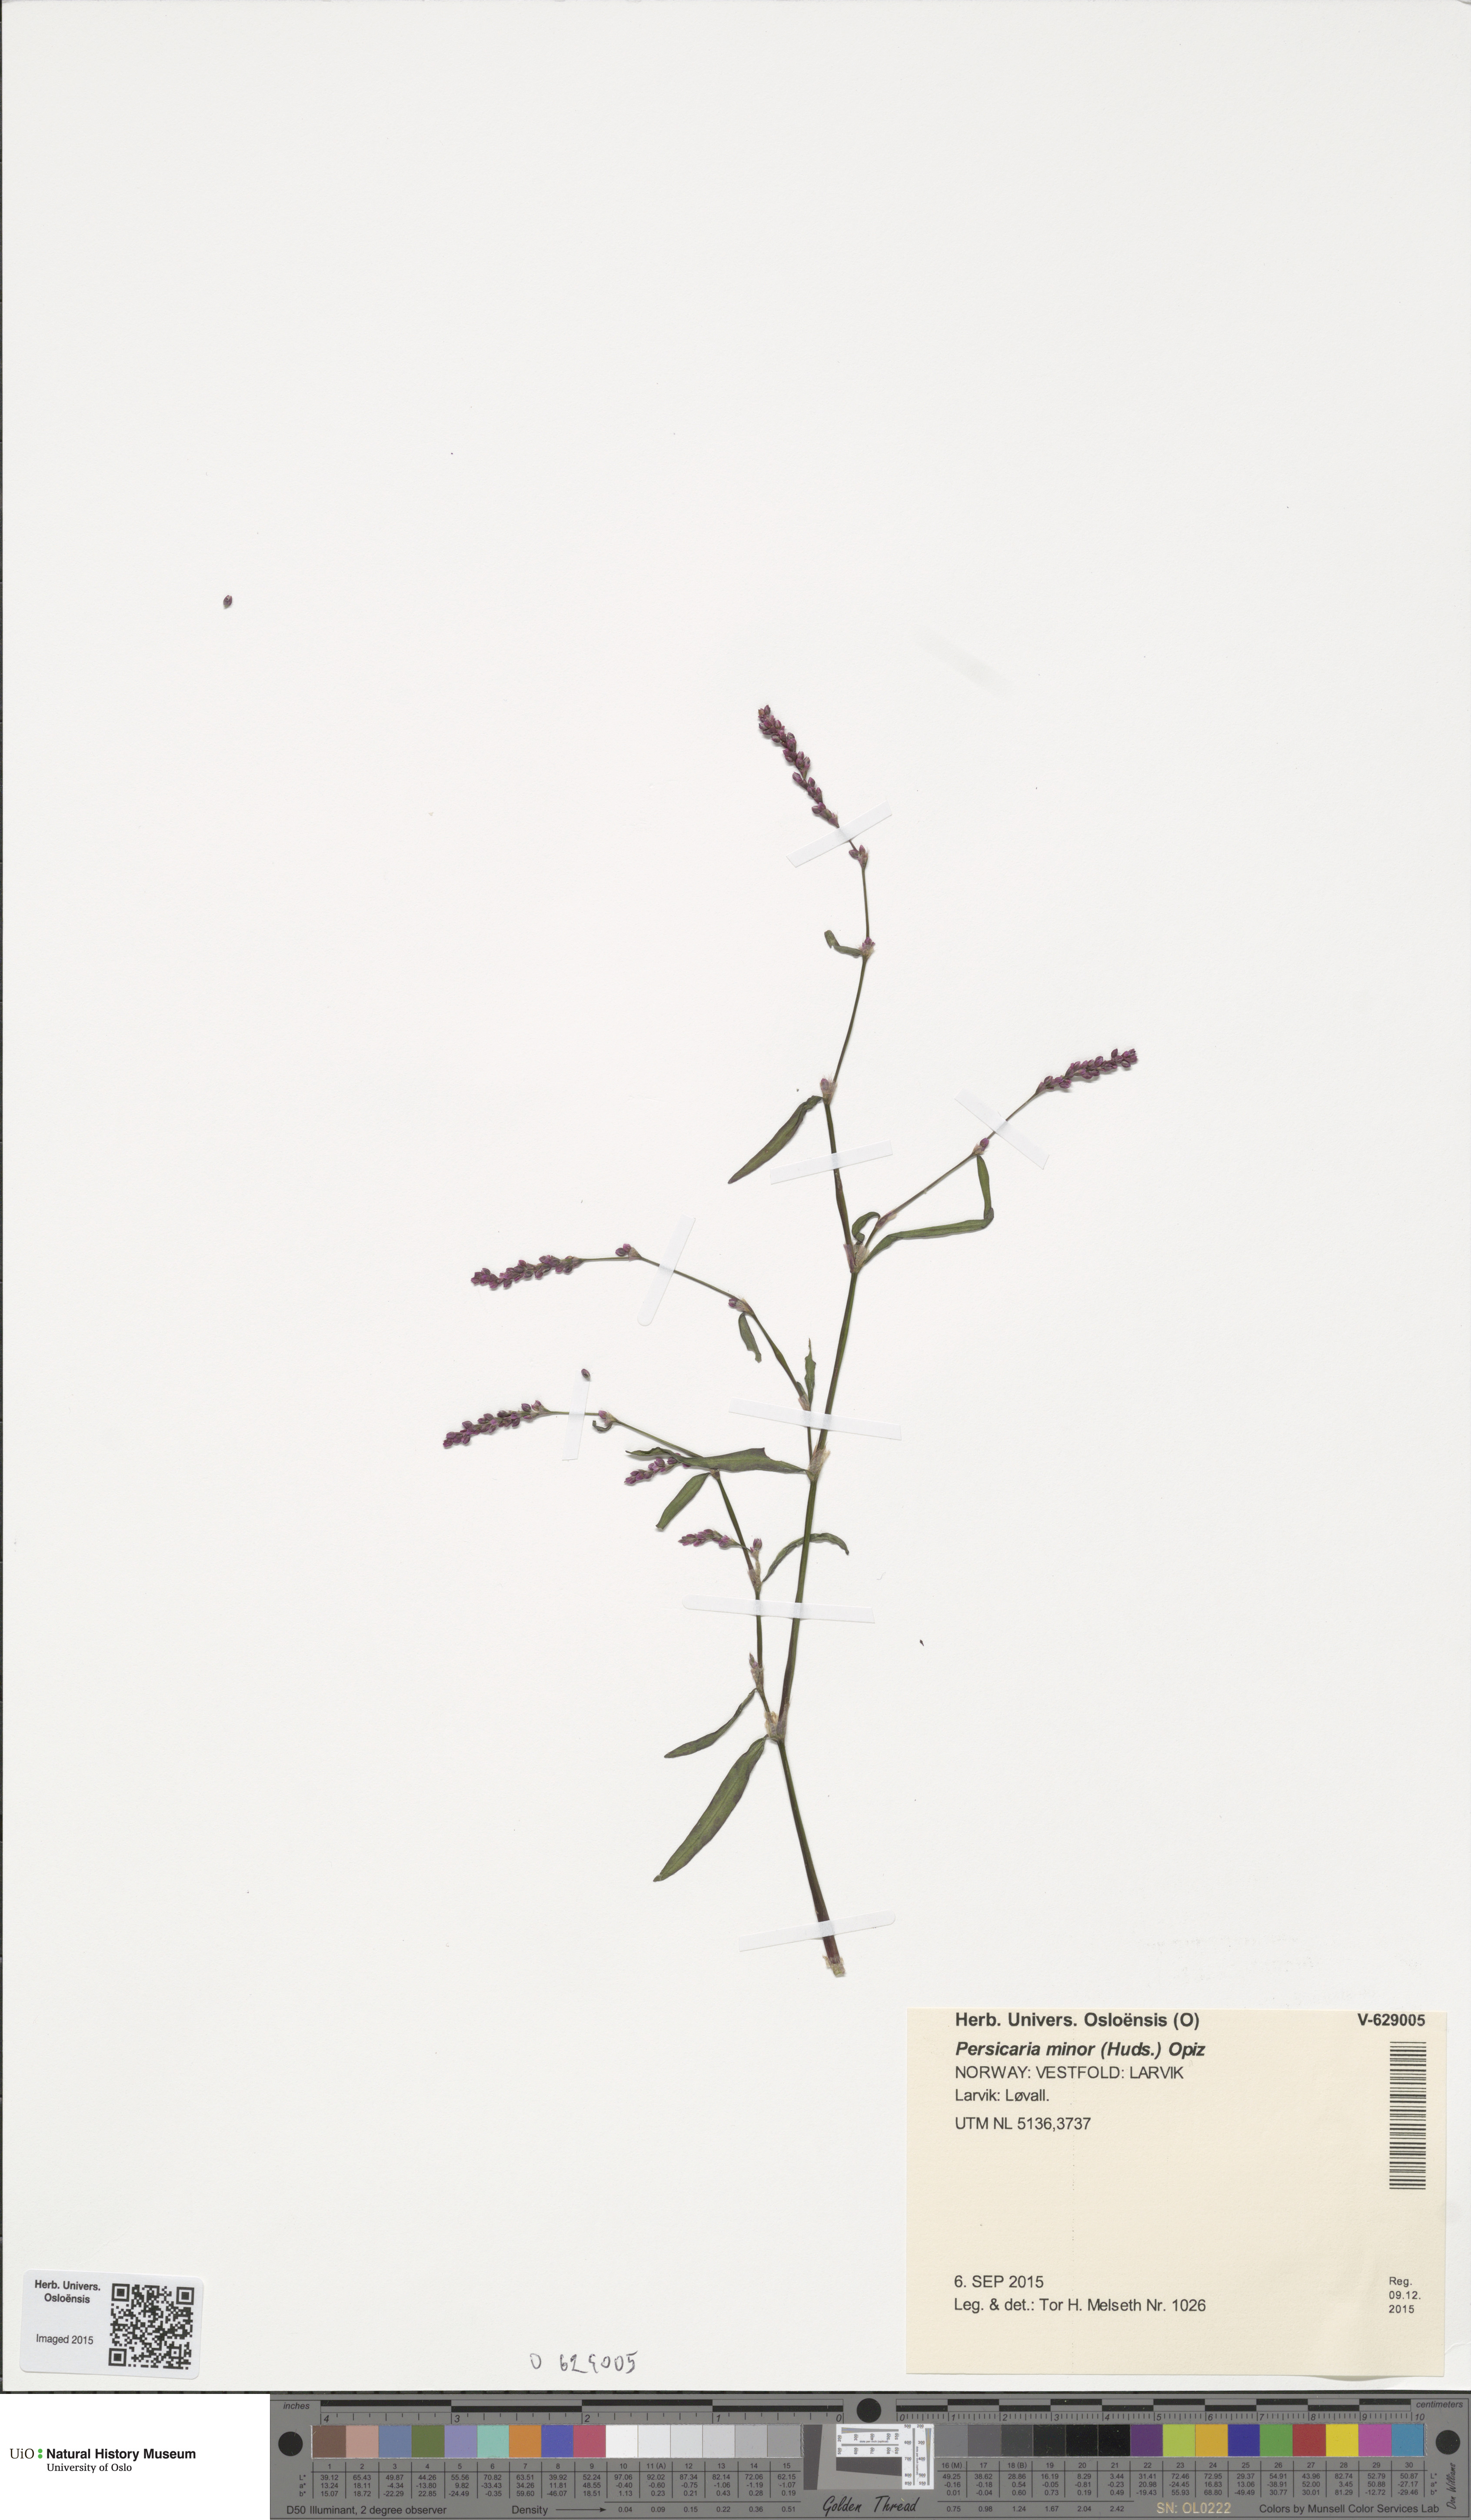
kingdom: Plantae
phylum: Tracheophyta
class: Magnoliopsida
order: Caryophyllales
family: Polygonaceae
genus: Persicaria
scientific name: Persicaria minor
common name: Small water-pepper
